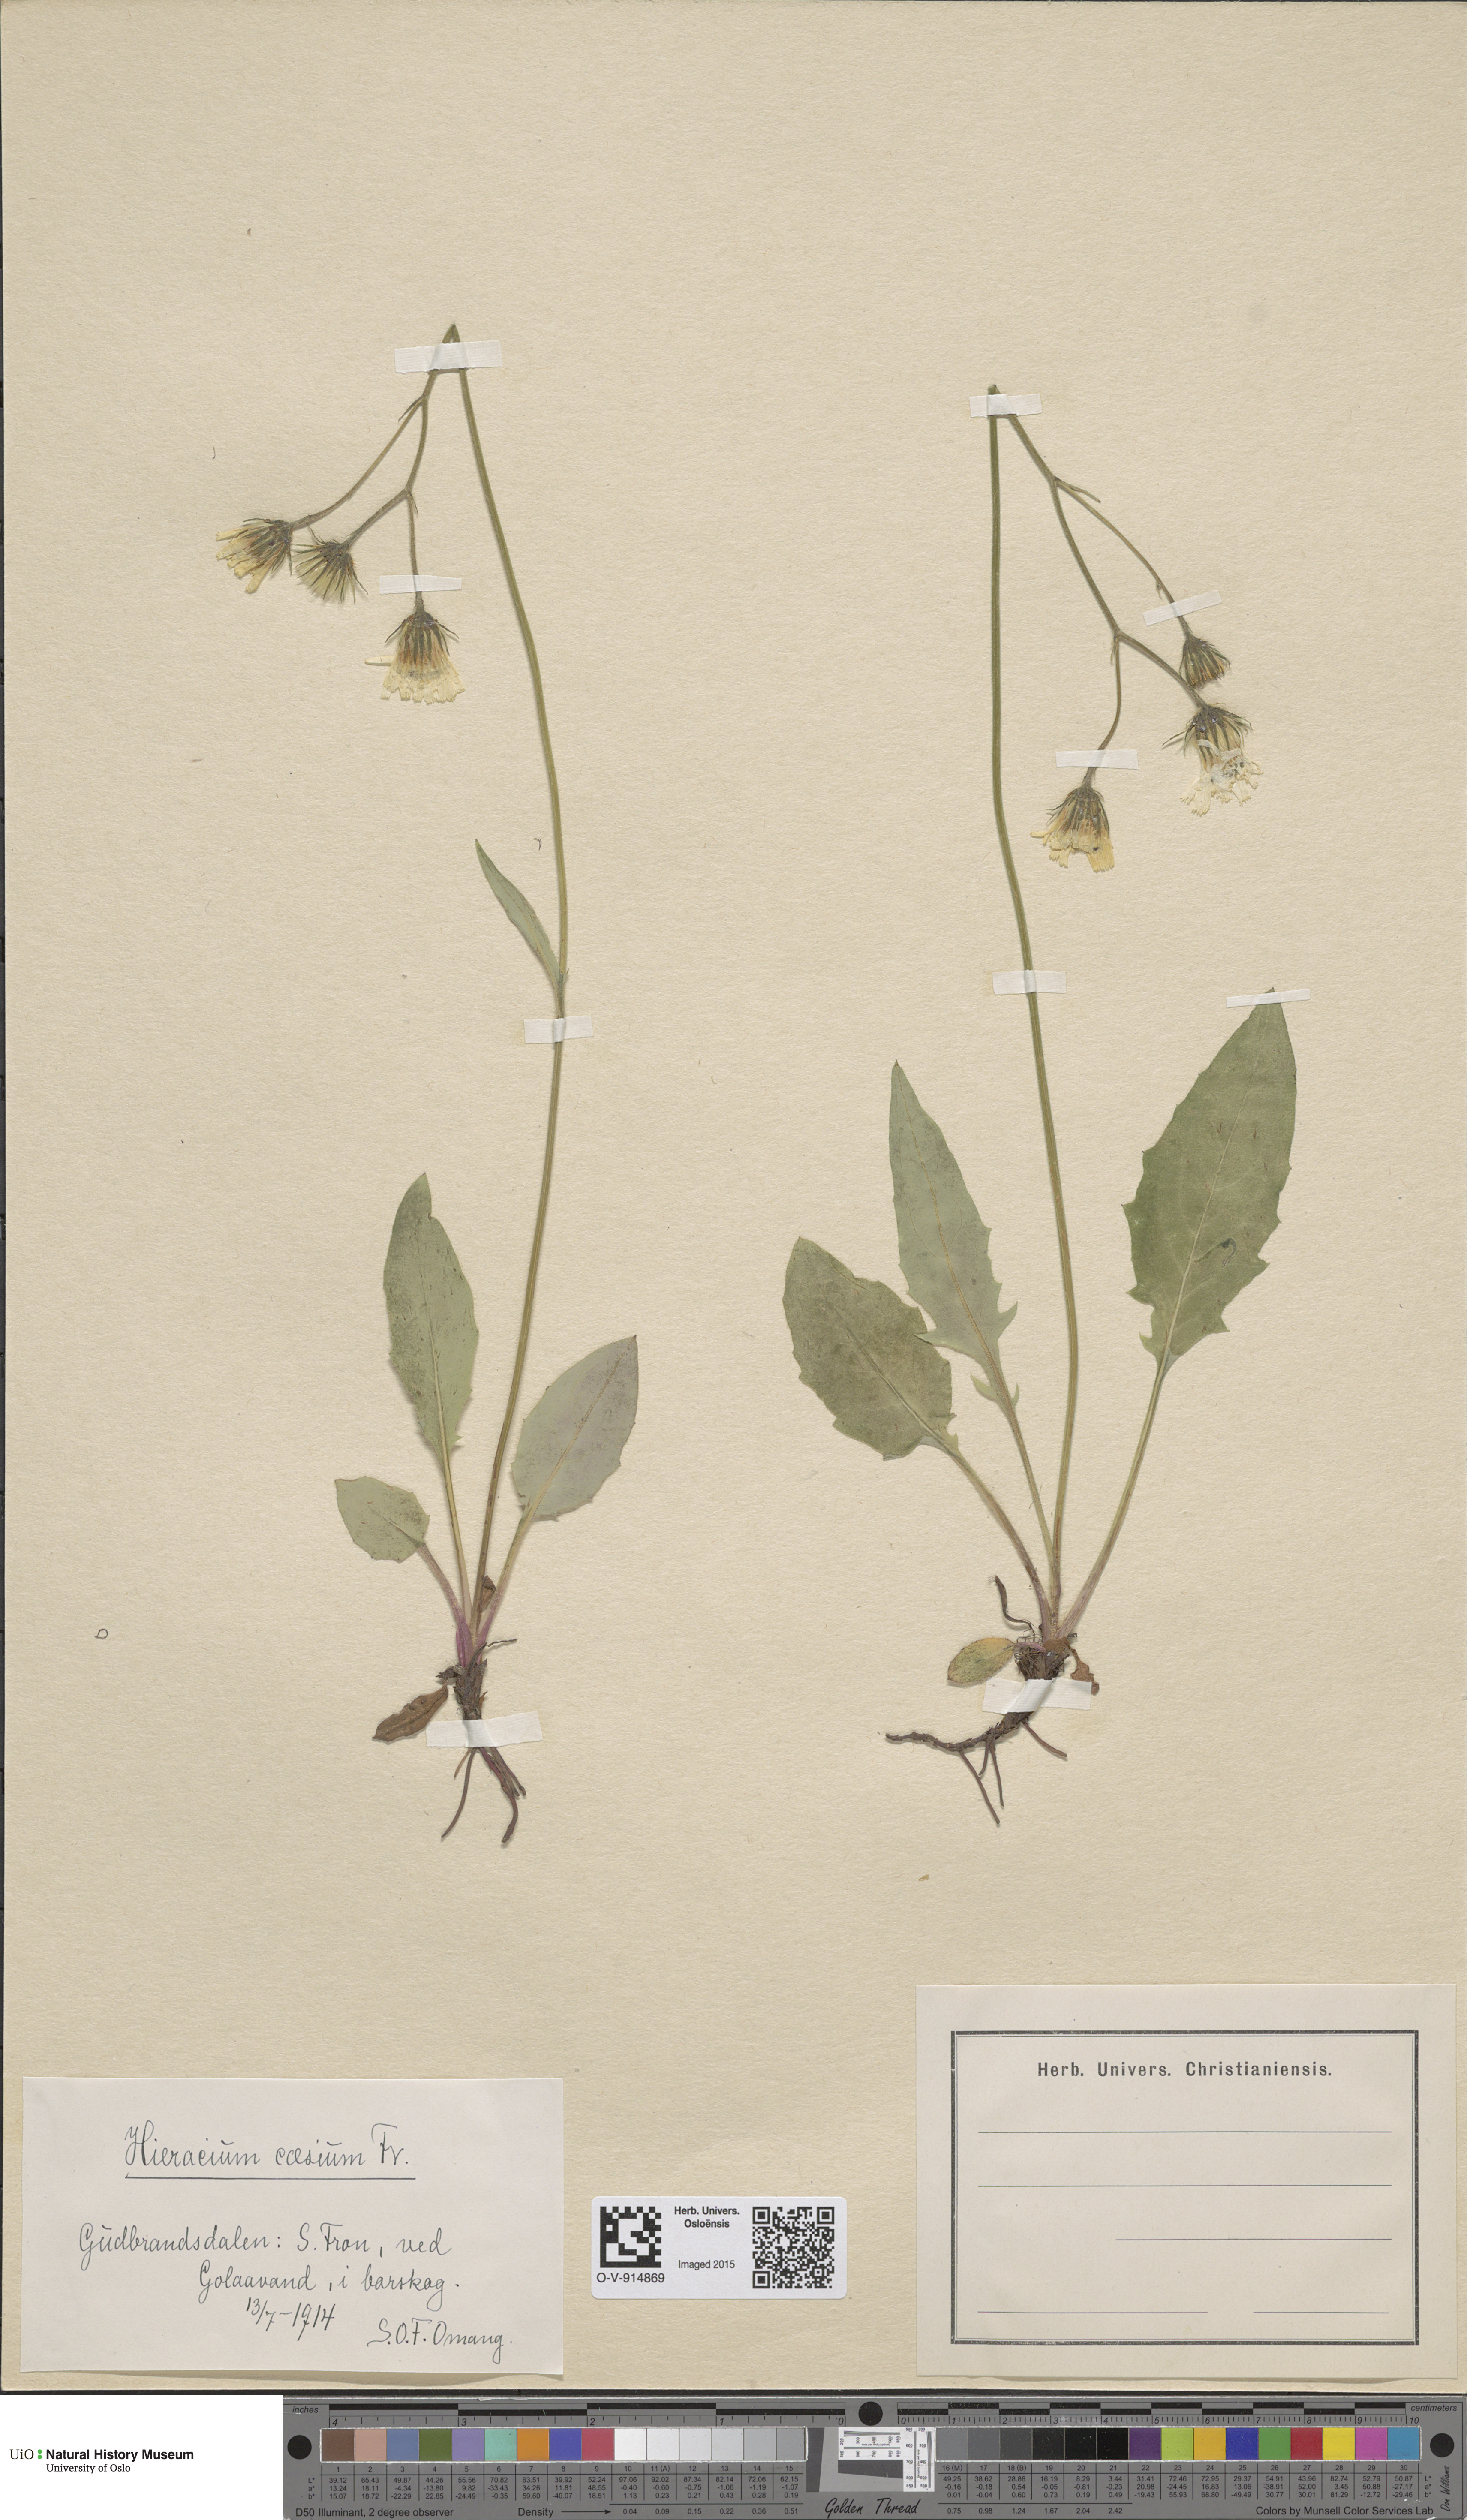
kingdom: Plantae
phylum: Tracheophyta
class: Magnoliopsida
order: Asterales
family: Asteraceae
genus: Hieracium
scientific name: Hieracium caesium
